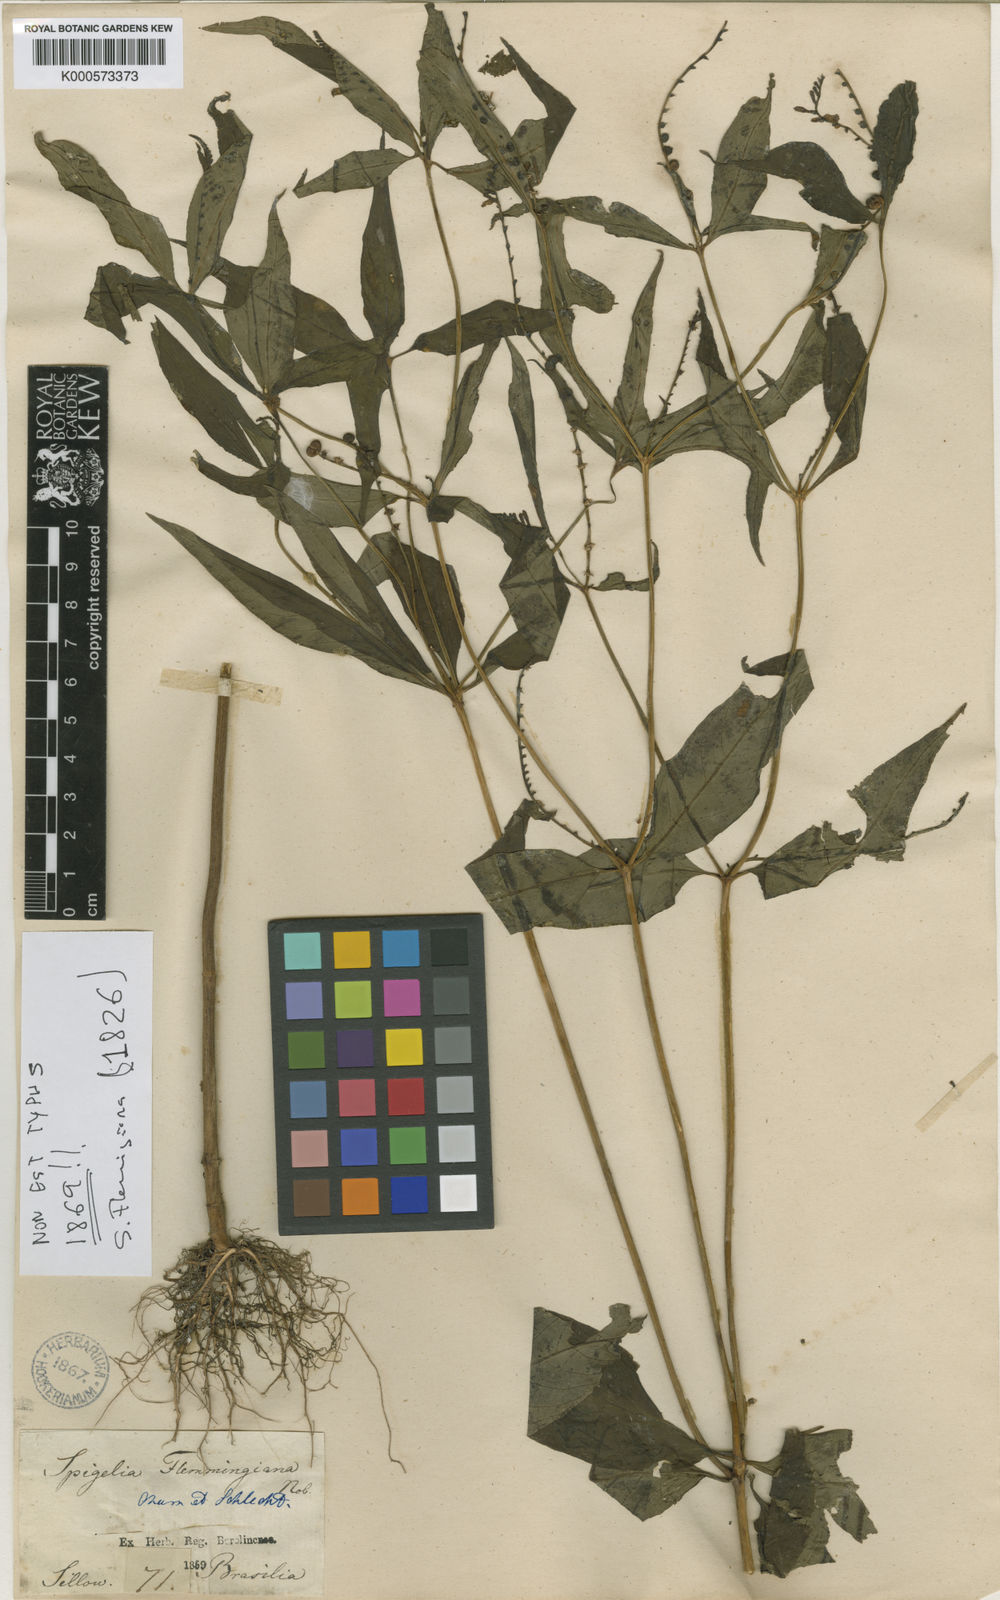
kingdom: Plantae
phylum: Tracheophyta
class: Magnoliopsida
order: Gentianales
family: Loganiaceae
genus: Spigelia
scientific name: Spigelia flemmingiana
